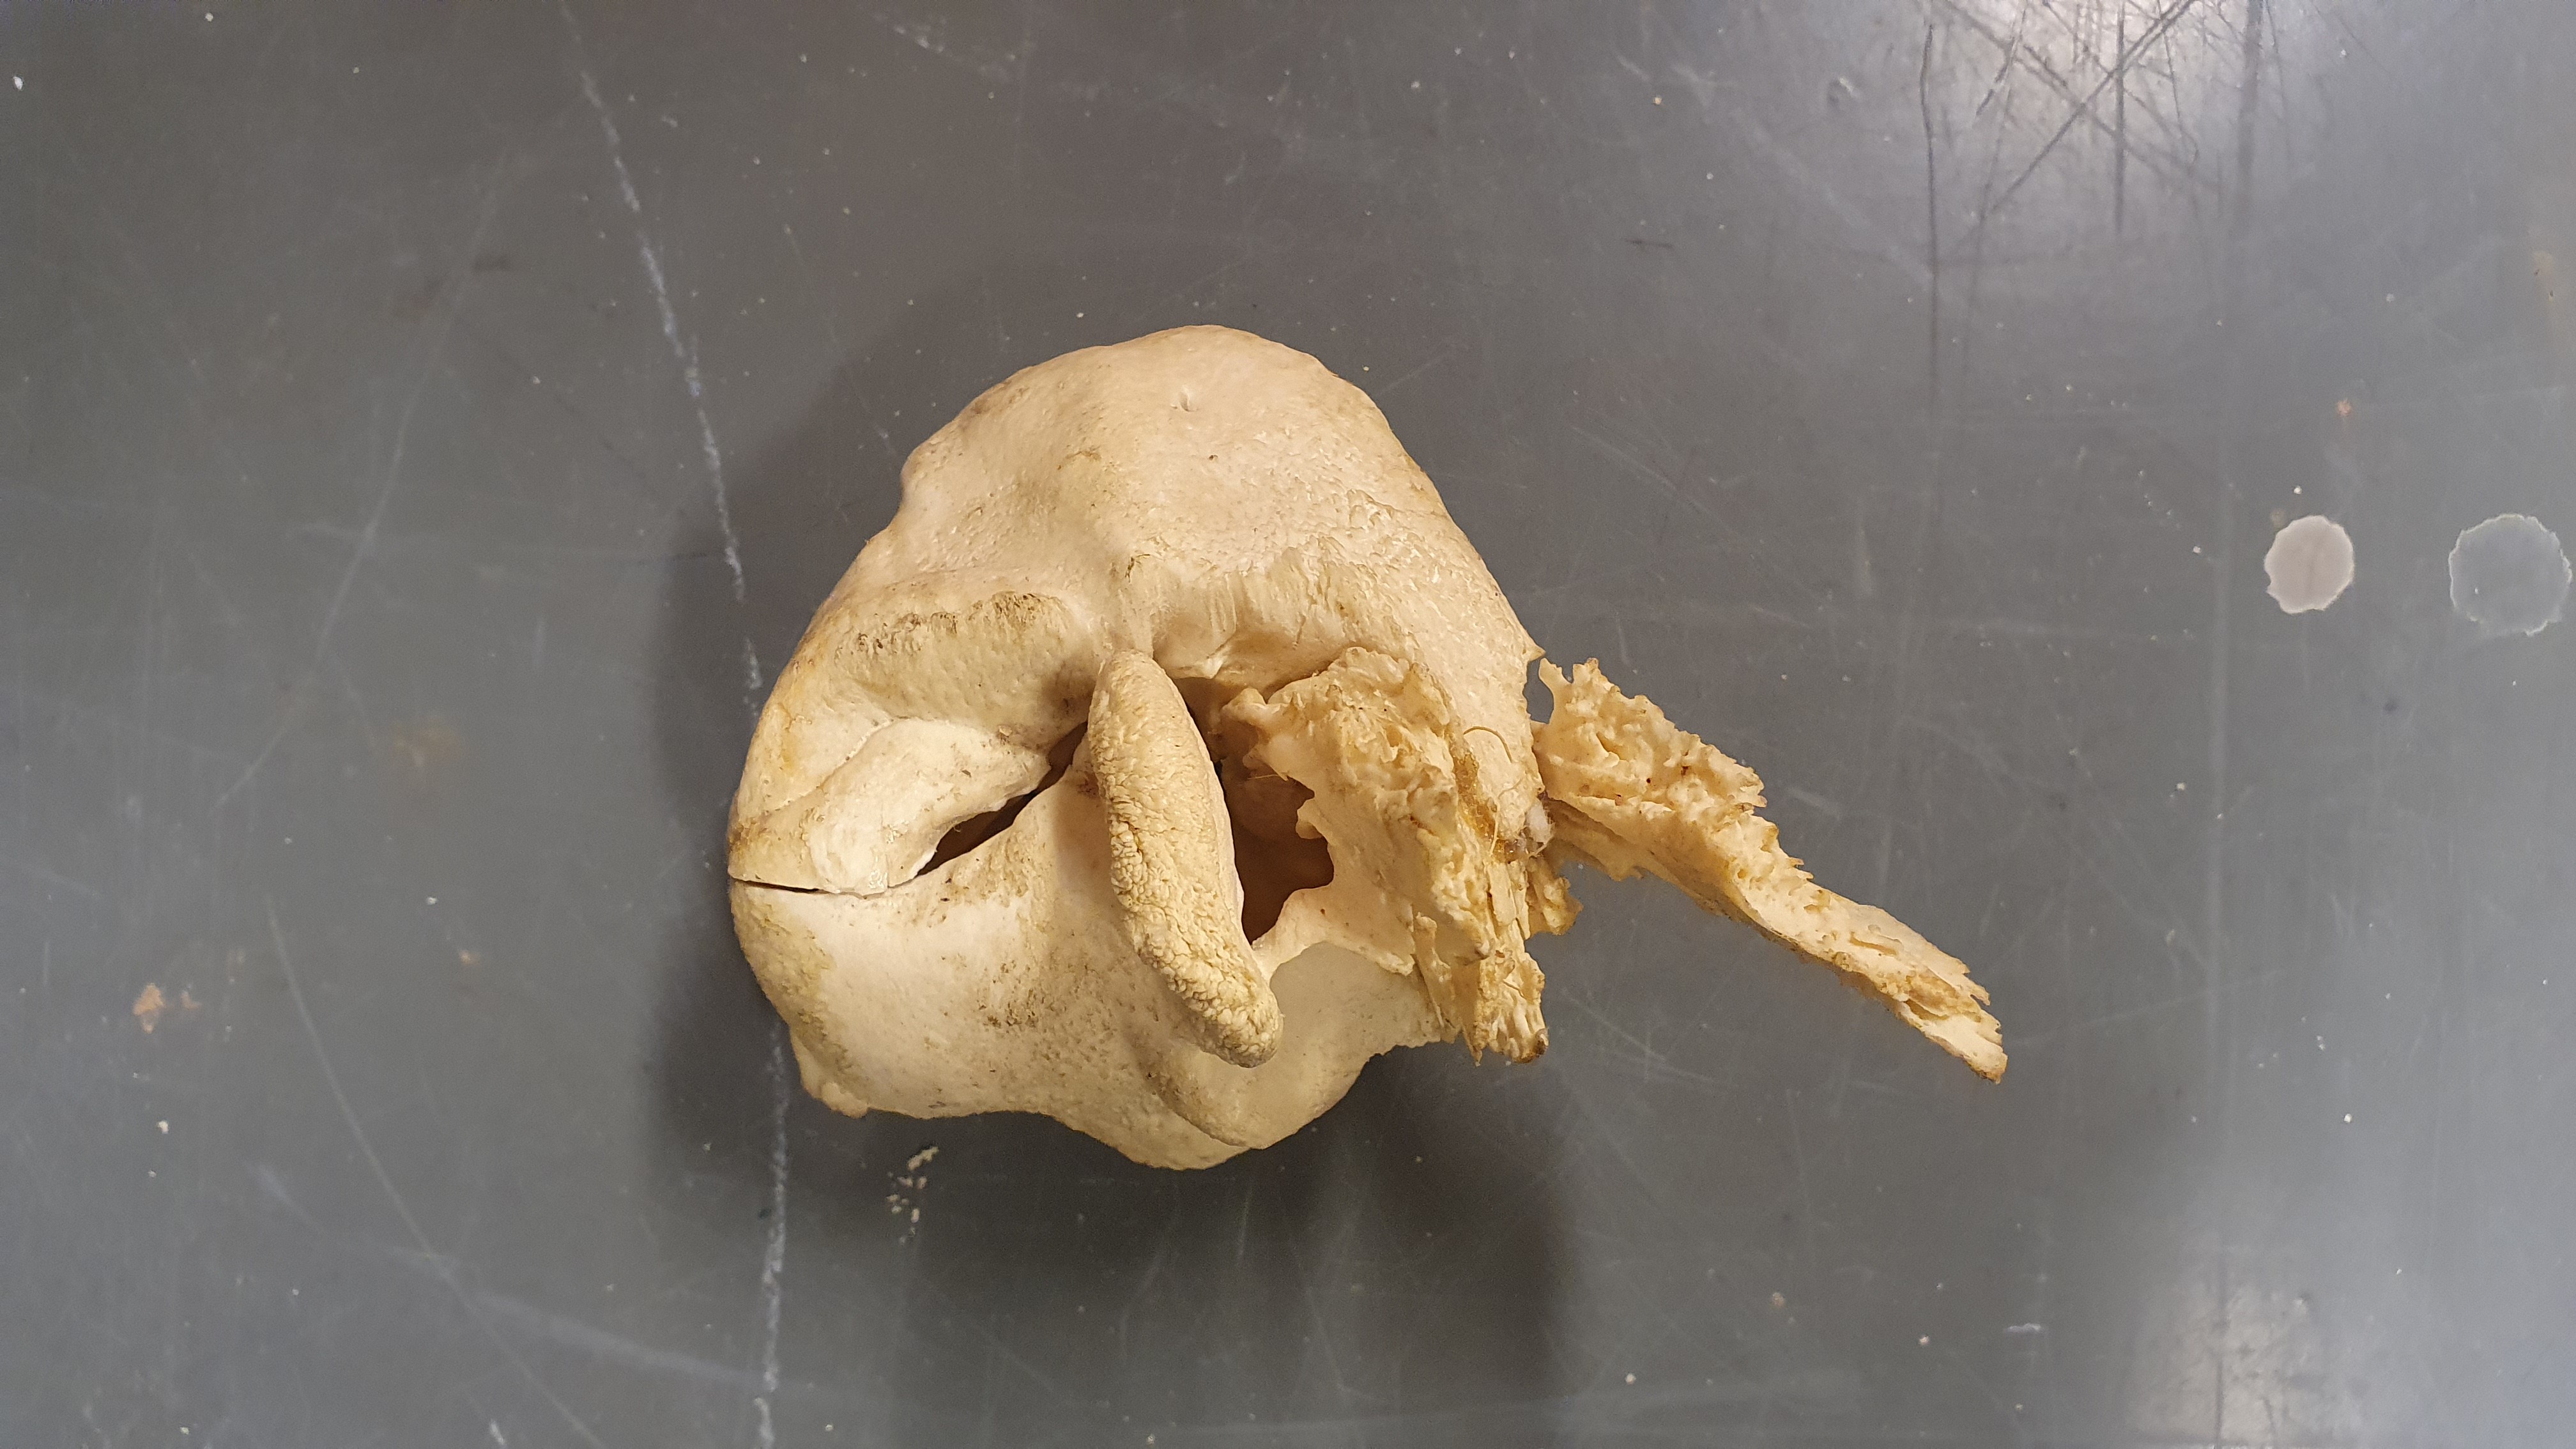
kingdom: Animalia
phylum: Chordata
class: Mammalia
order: Cetacea
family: Physeteridae
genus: Physeter
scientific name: Physeter macrocephalus
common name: Sperm whale
